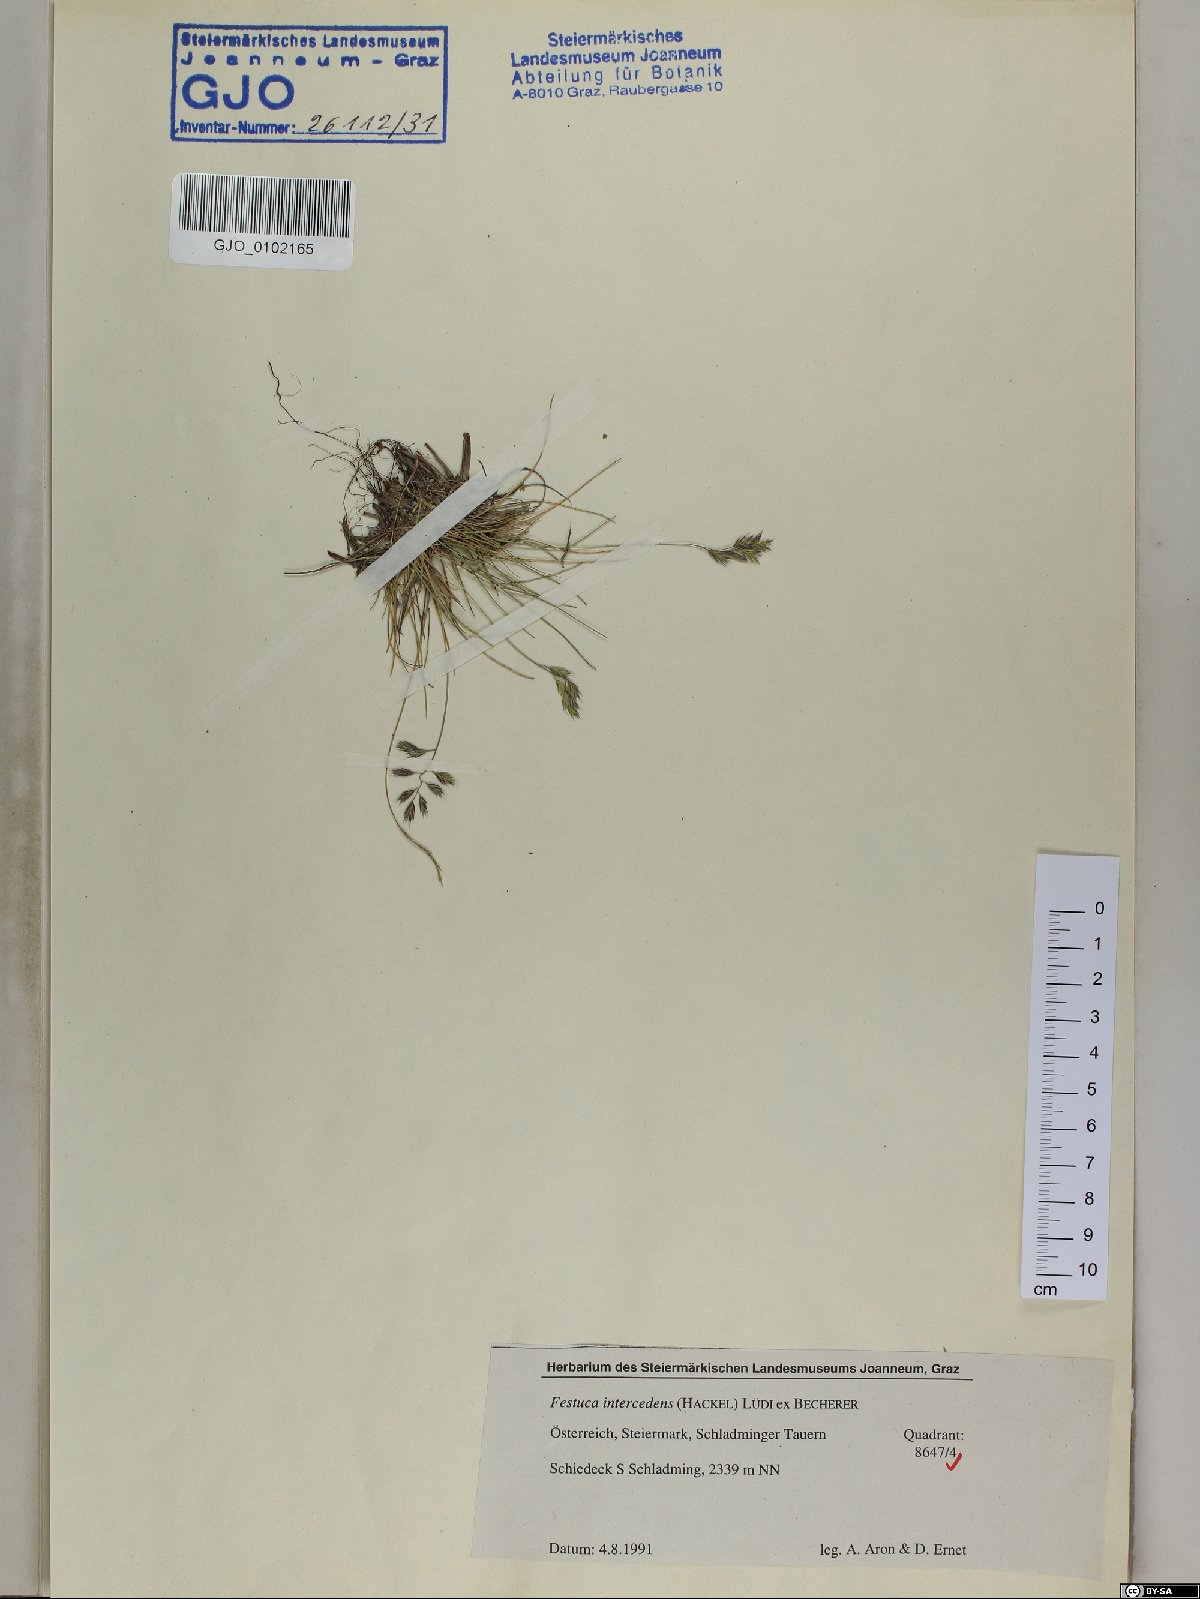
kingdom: Plantae
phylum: Tracheophyta
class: Liliopsida
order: Poales
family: Poaceae
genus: Festuca
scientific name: Festuca intercedens
